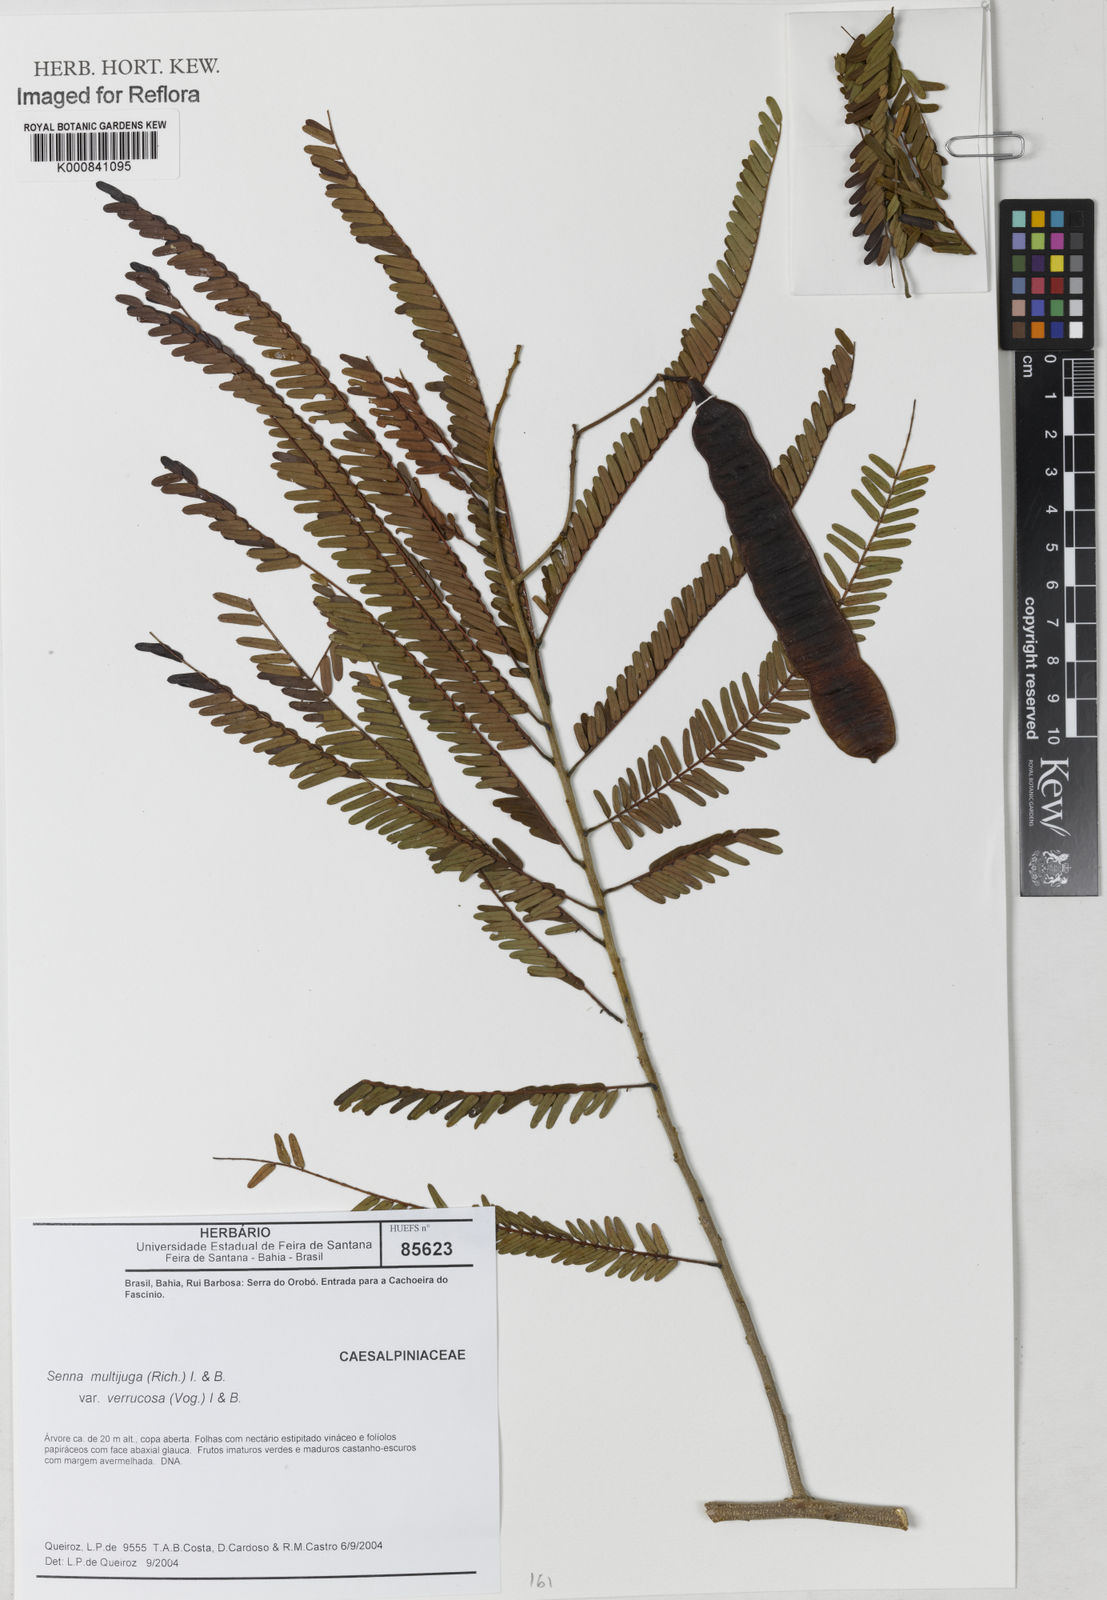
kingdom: Plantae
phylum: Tracheophyta
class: Magnoliopsida
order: Fabales
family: Fabaceae
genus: Senna
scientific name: Senna multijuga
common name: False sicklepod
